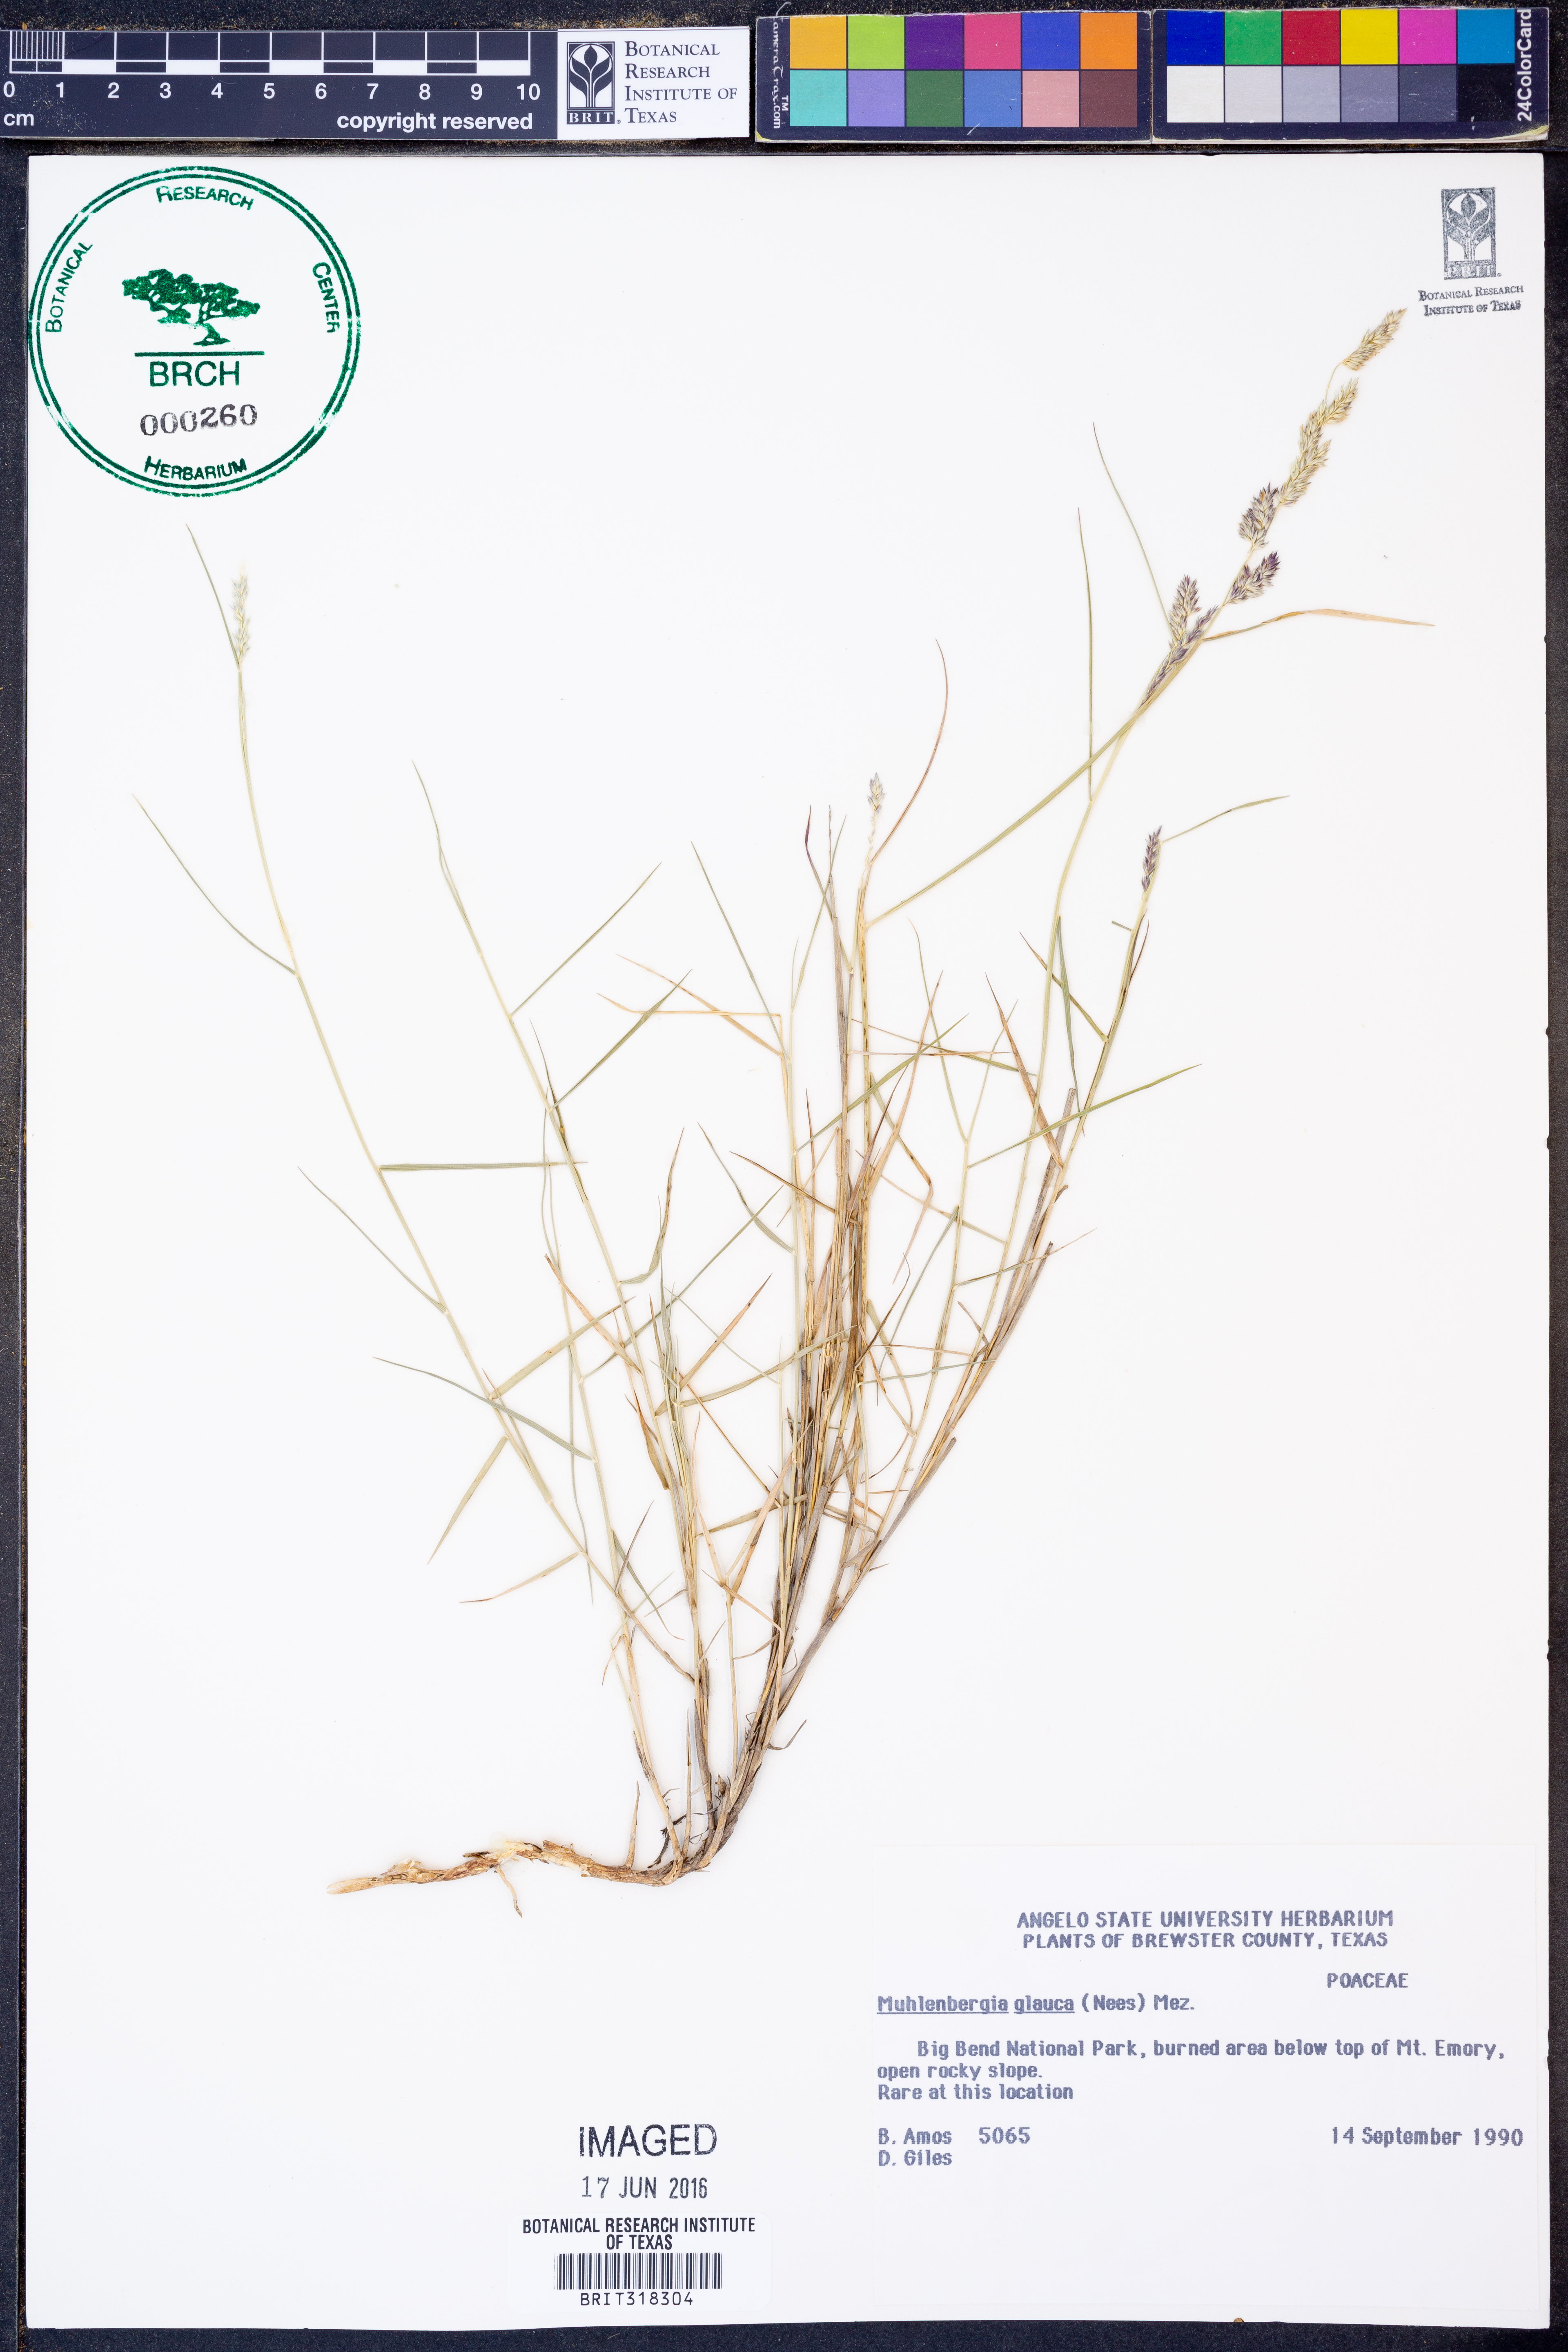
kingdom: Plantae
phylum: Tracheophyta
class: Liliopsida
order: Poales
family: Poaceae
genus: Muhlenbergia
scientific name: Muhlenbergia glauca
